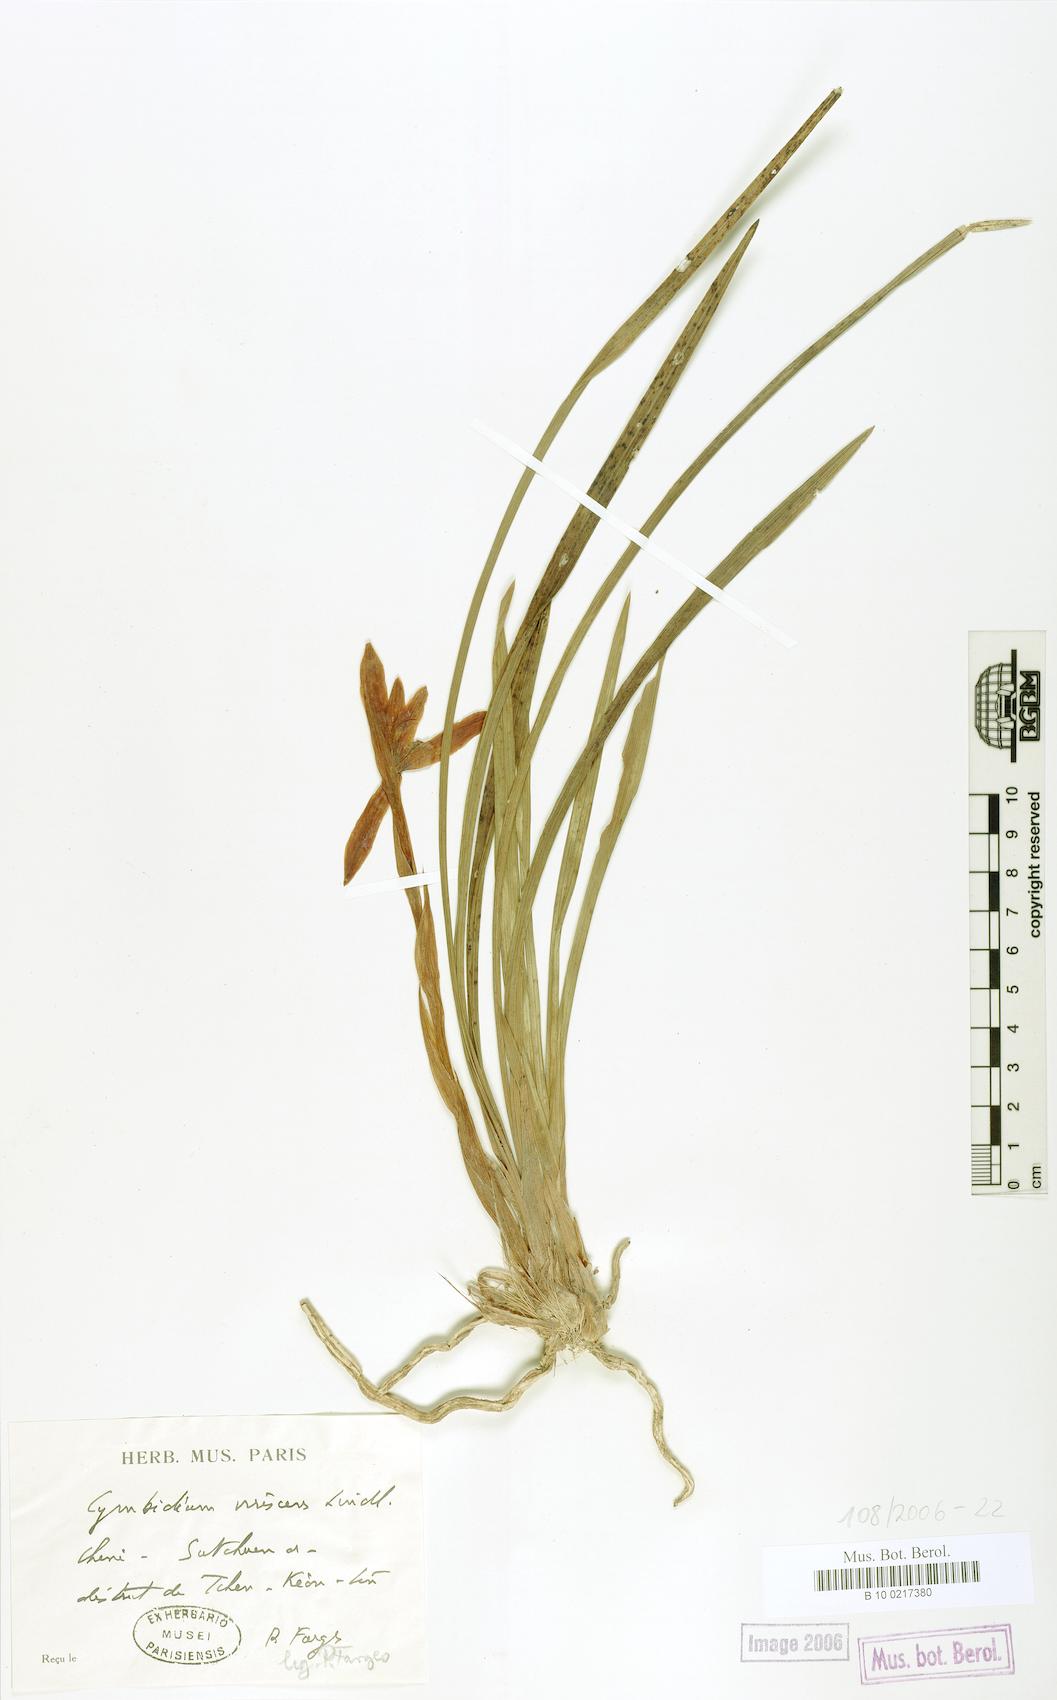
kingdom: Plantae
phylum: Tracheophyta
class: Liliopsida
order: Asparagales
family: Orchidaceae
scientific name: Orchidaceae
